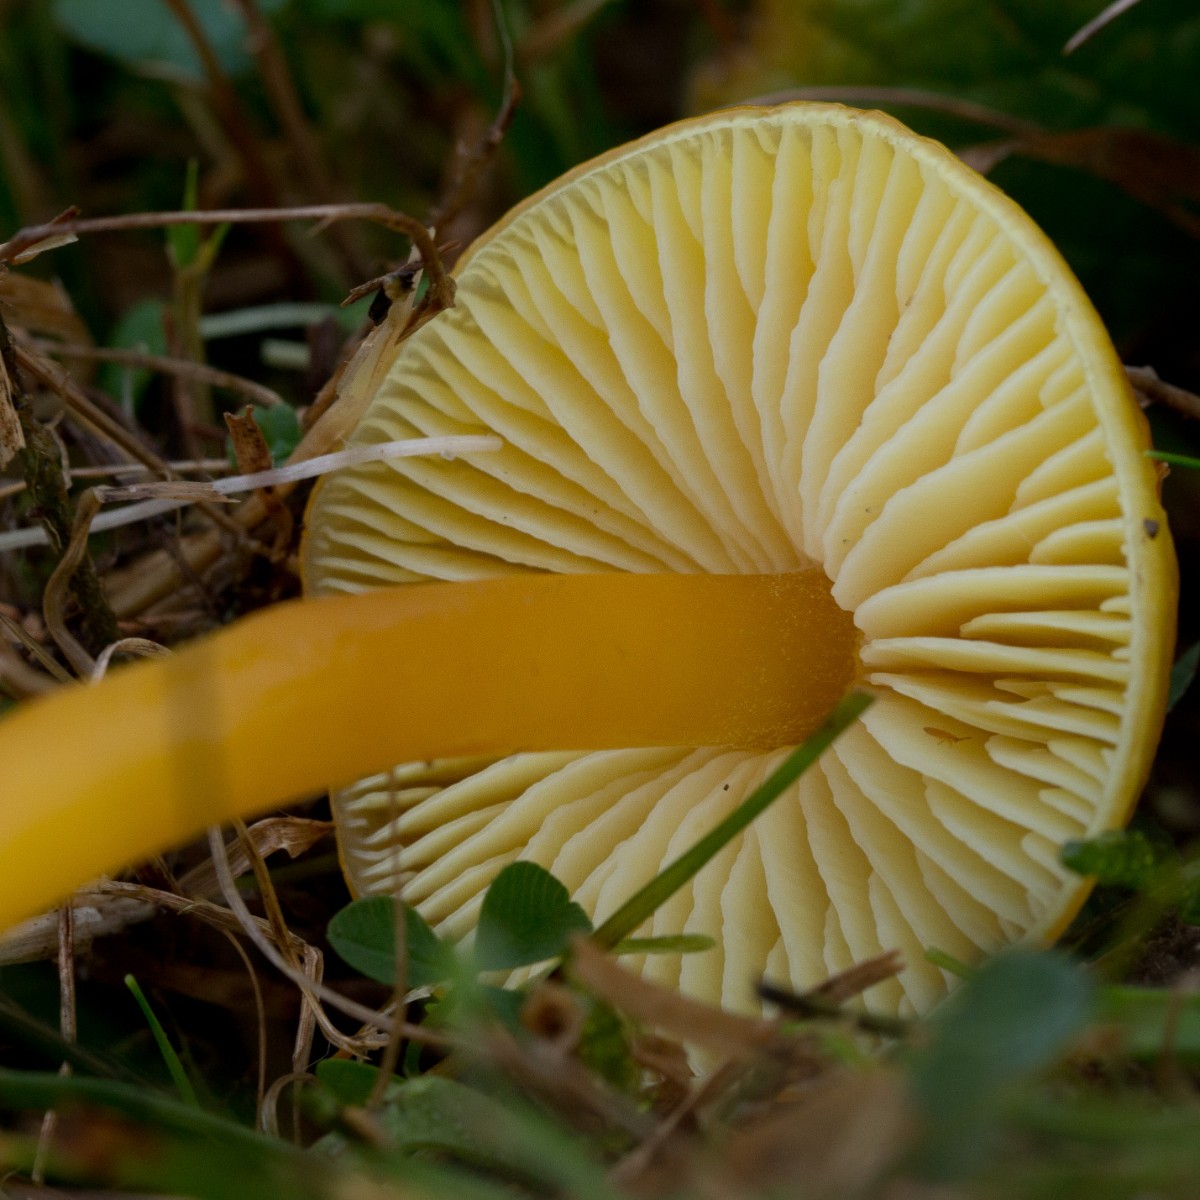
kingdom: Fungi
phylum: Basidiomycota
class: Agaricomycetes
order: Agaricales
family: Hygrophoraceae
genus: Hygrocybe
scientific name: Hygrocybe chlorophana
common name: gul vokshat
